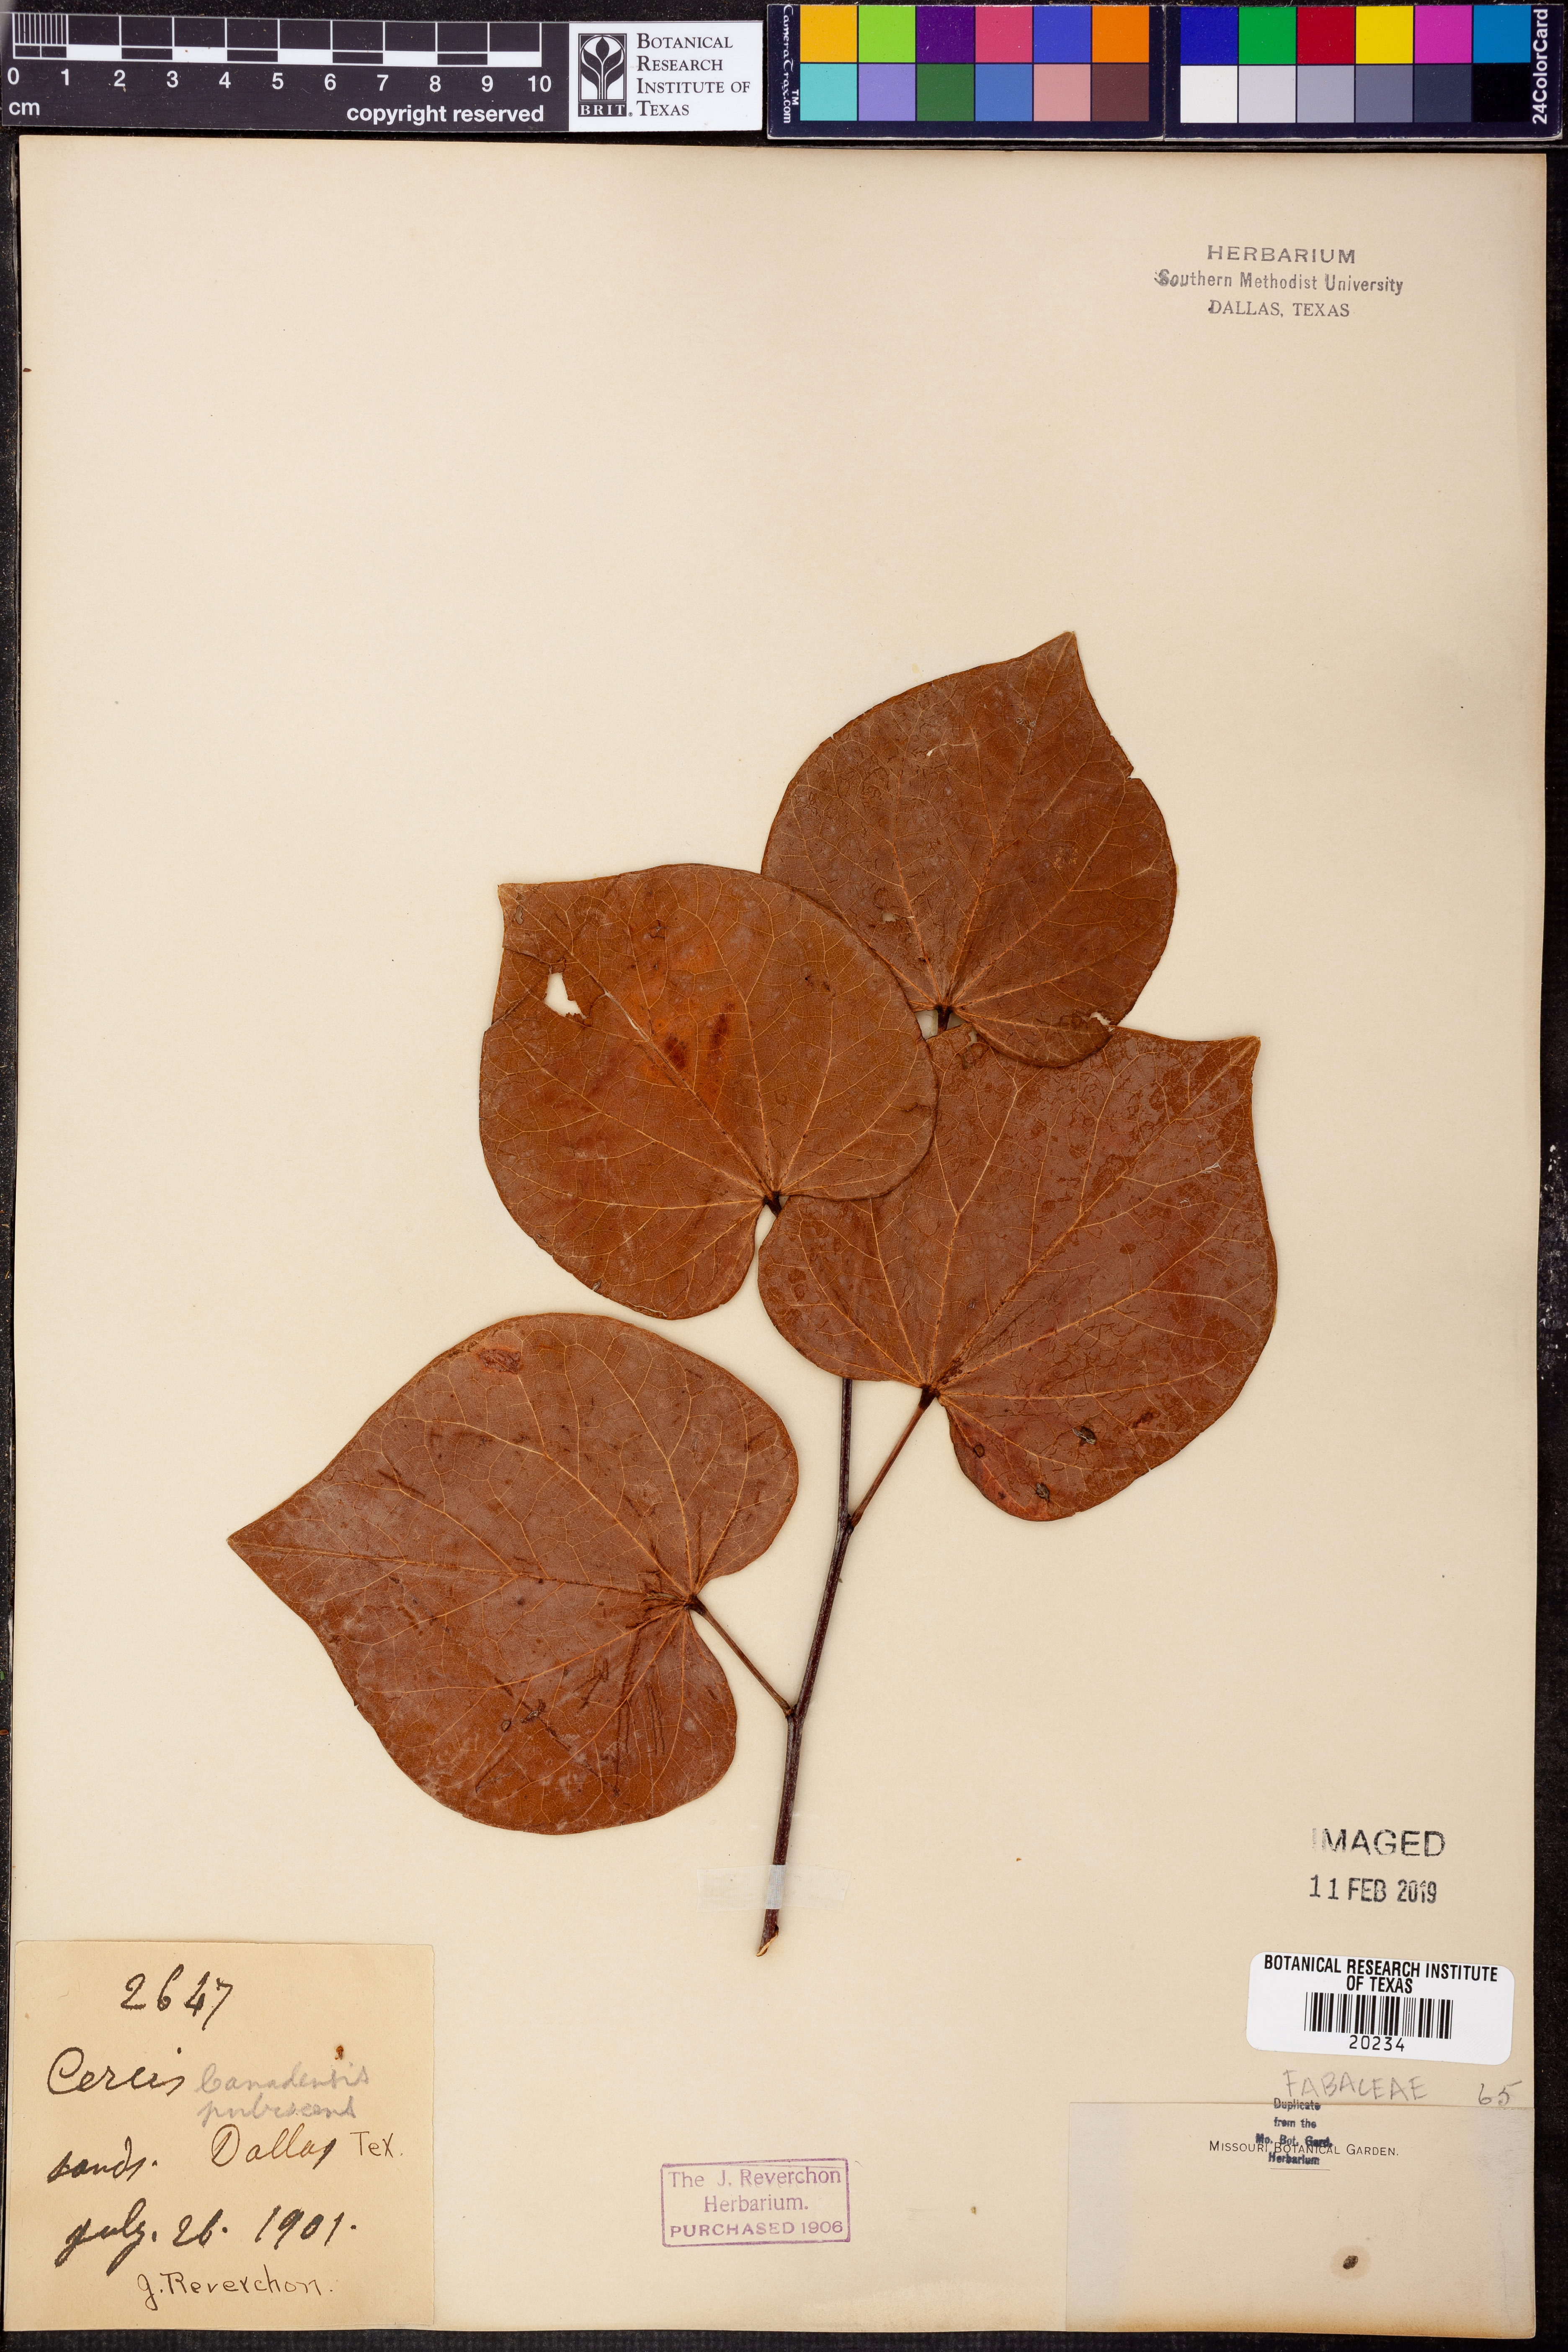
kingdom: Plantae
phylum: Tracheophyta
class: Magnoliopsida
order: Fabales
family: Fabaceae
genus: Cercis
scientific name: Cercis canadensis
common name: Eastern redbud
